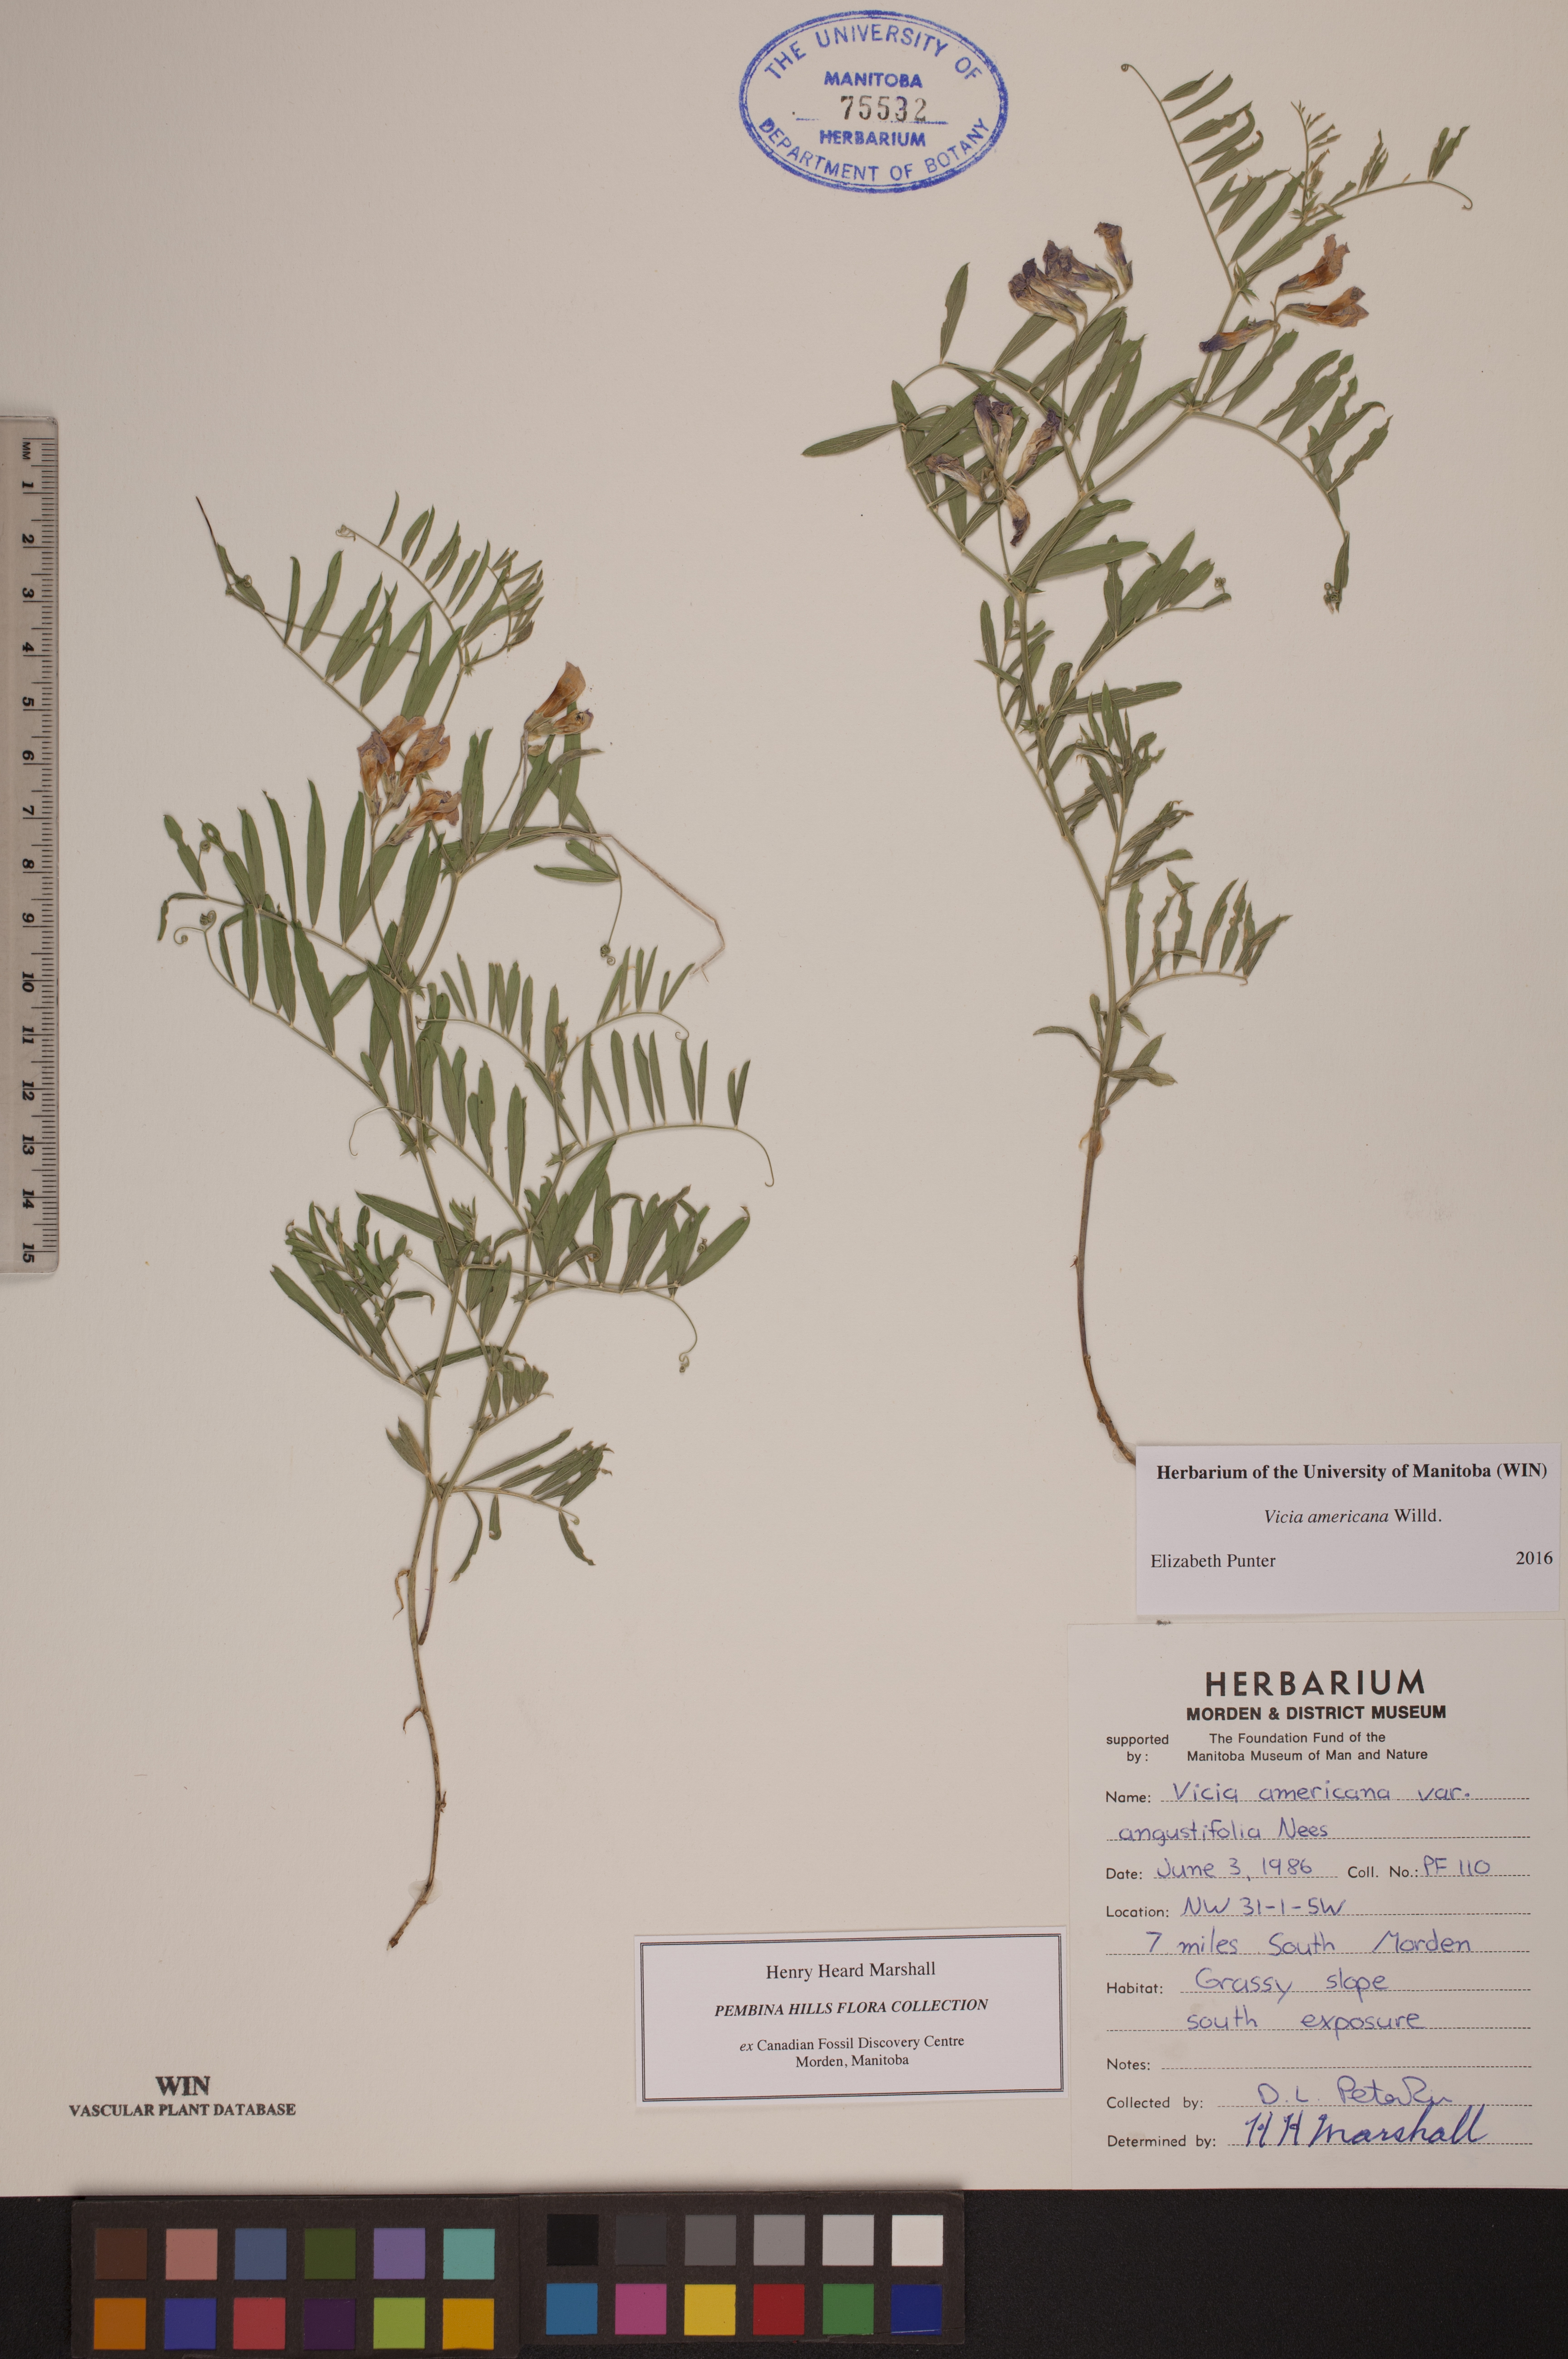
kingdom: Plantae
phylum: Tracheophyta
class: Magnoliopsida
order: Fabales
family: Fabaceae
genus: Vicia
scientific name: Vicia americana
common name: American vetch
